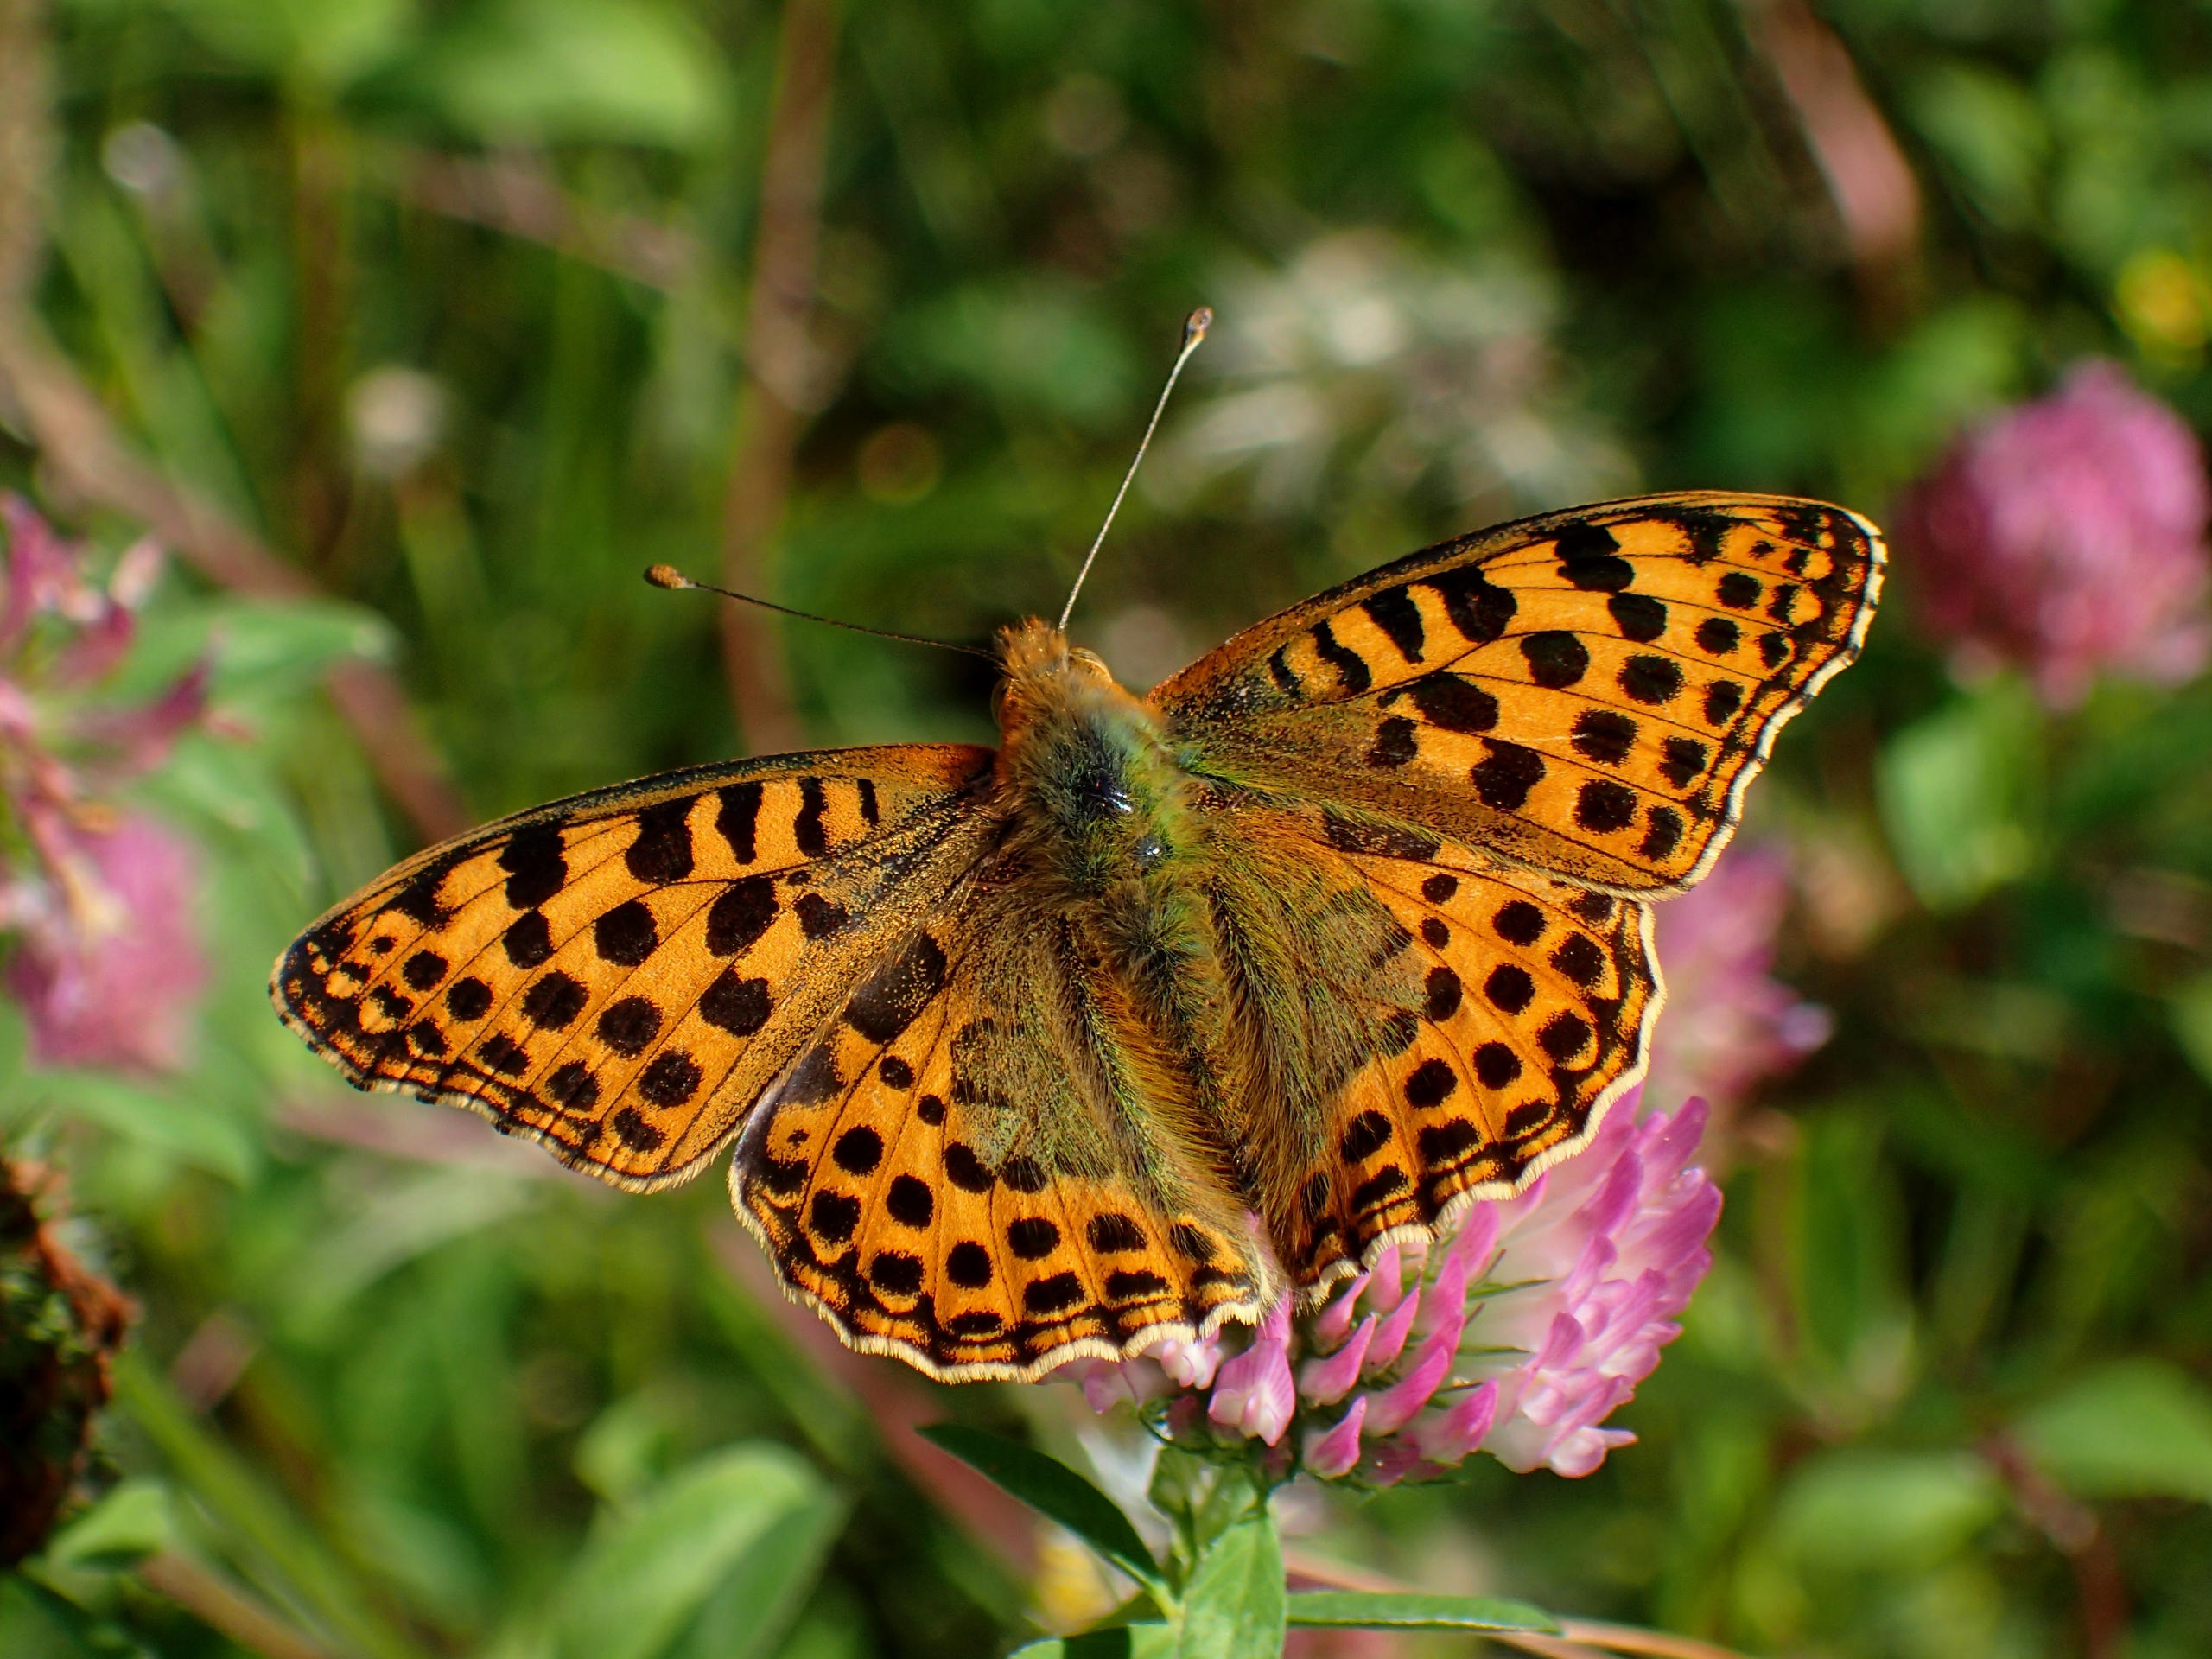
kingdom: Animalia
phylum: Arthropoda
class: Insecta
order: Lepidoptera
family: Nymphalidae
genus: Issoria
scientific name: Issoria lathonia
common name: Storplettet perlemorsommerfugl
